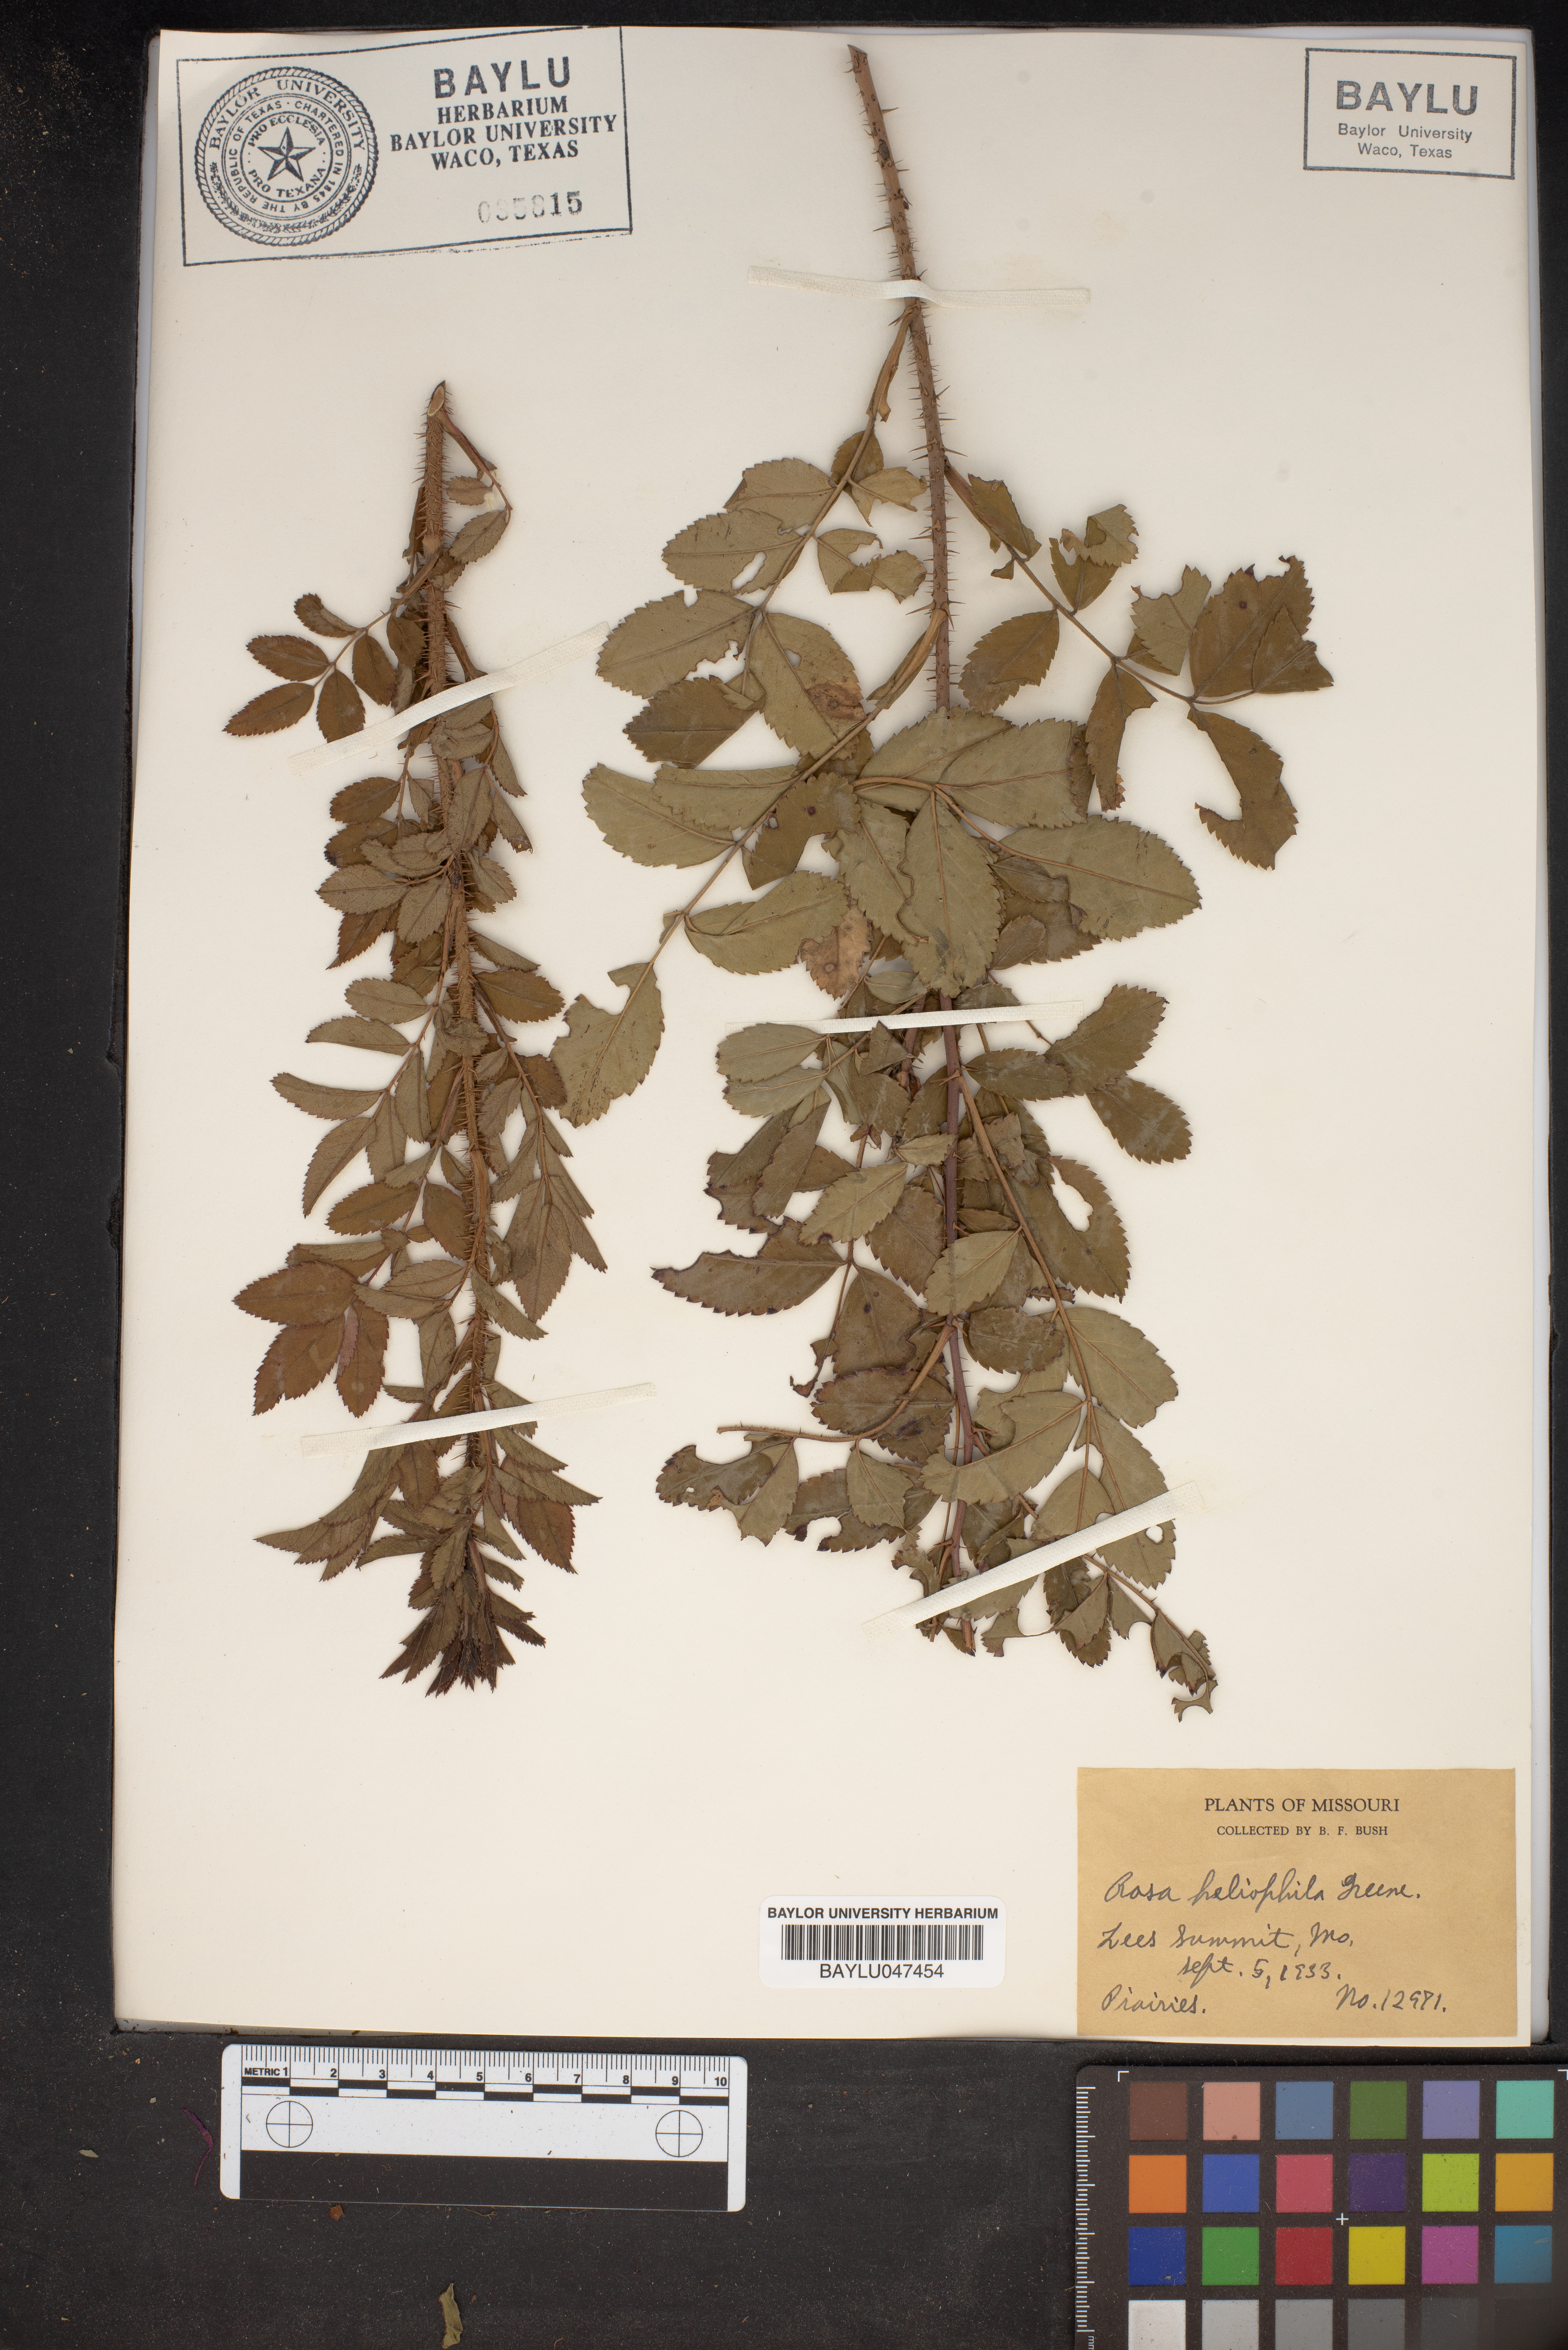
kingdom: Plantae
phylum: Tracheophyta
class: Magnoliopsida
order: Rosales
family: Rosaceae
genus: Rosa
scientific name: Rosa arkansana
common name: Prairie rose
